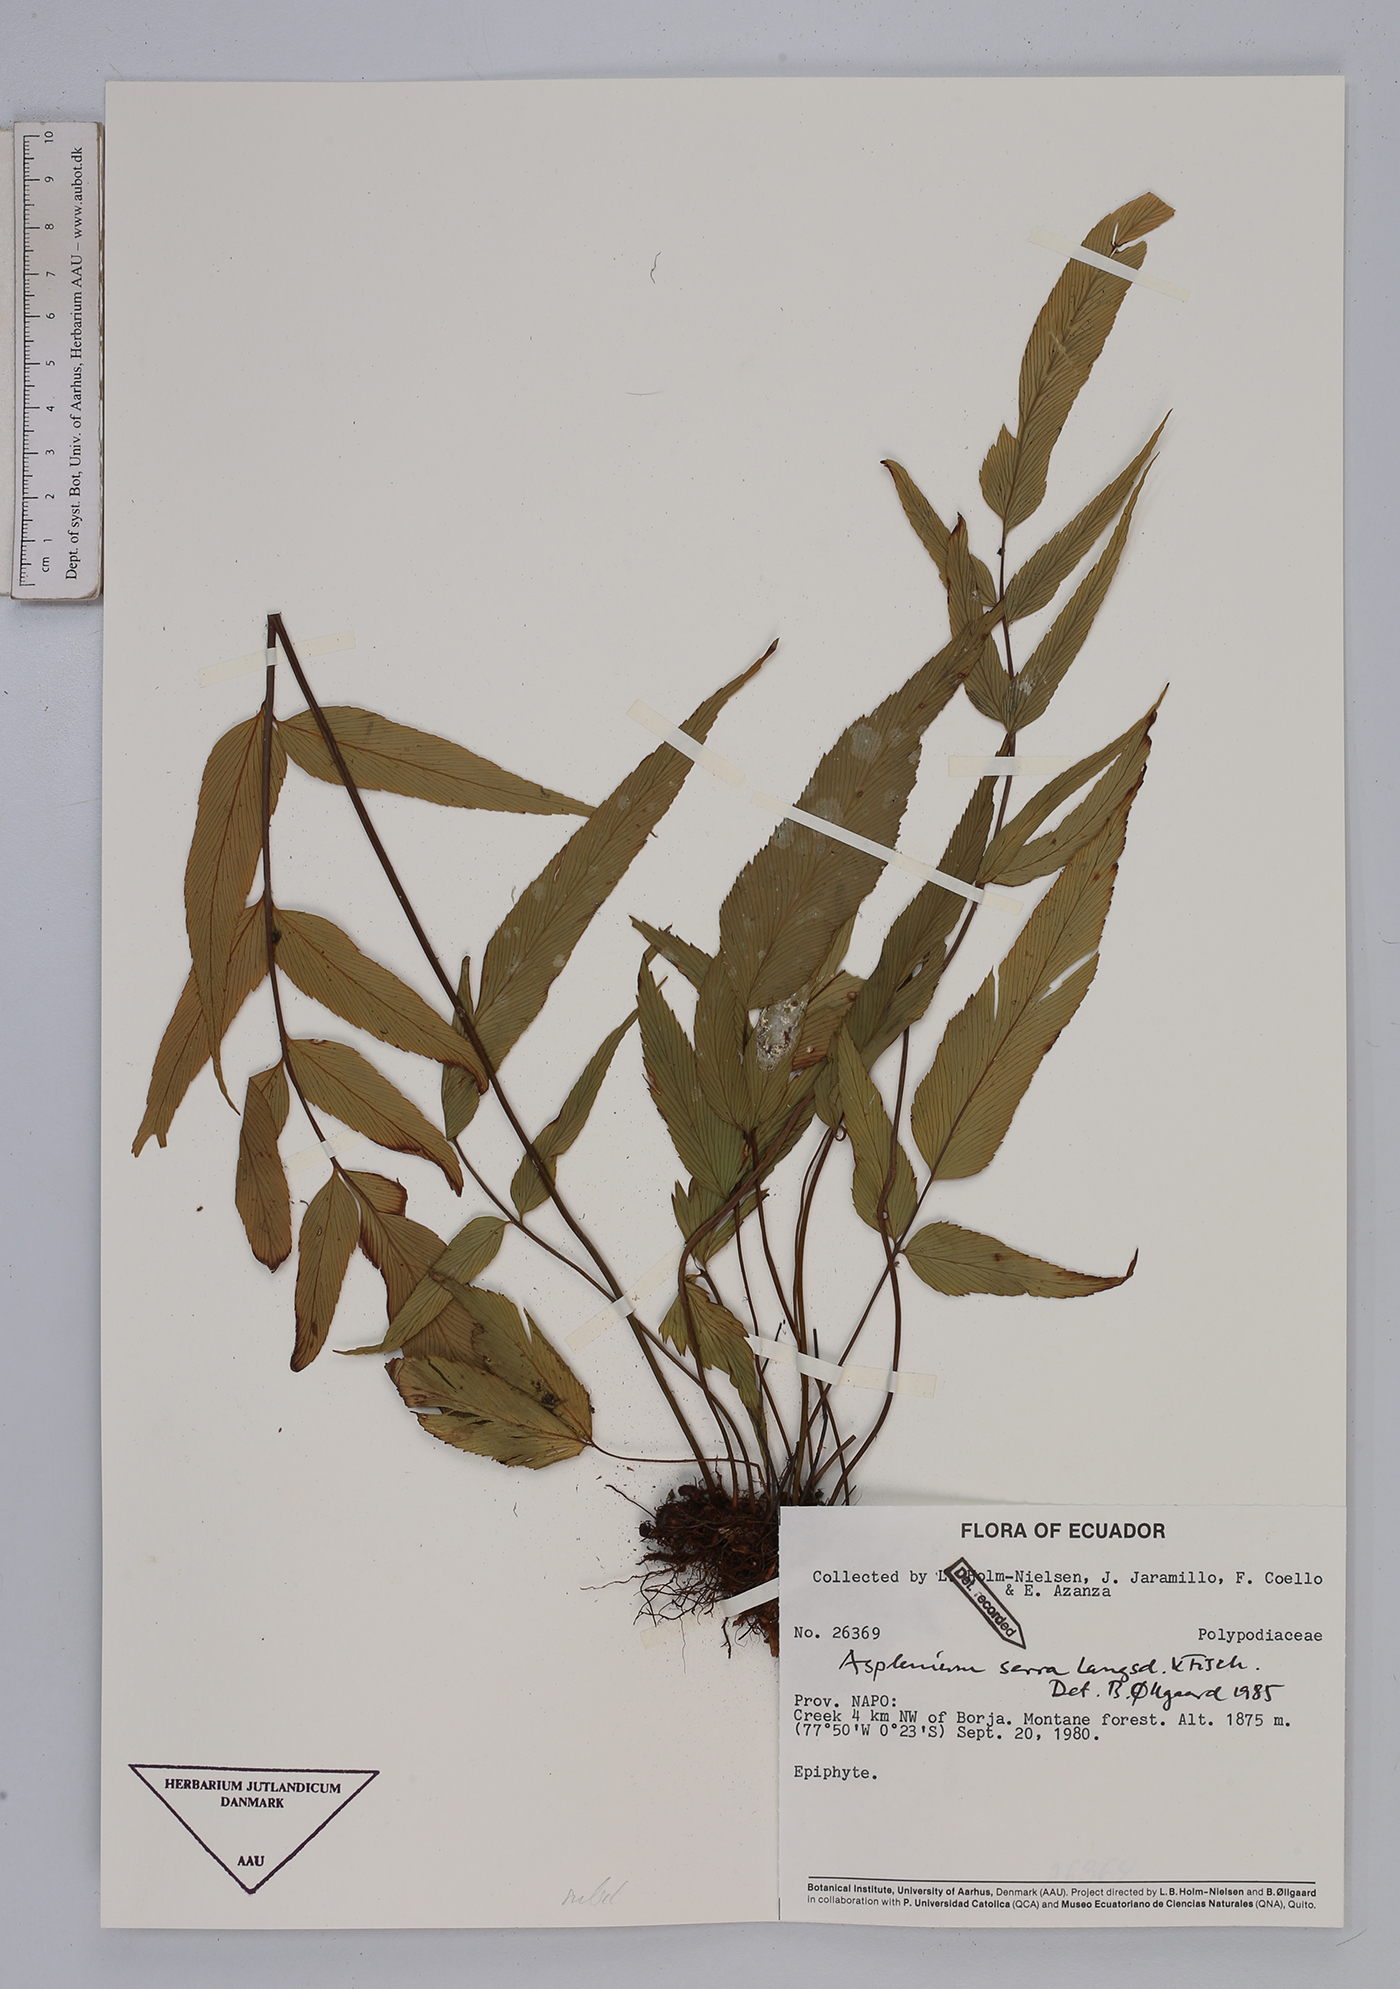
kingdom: Plantae
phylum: Tracheophyta
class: Polypodiopsida
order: Polypodiales
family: Aspleniaceae
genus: Asplenium
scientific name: Asplenium serra
